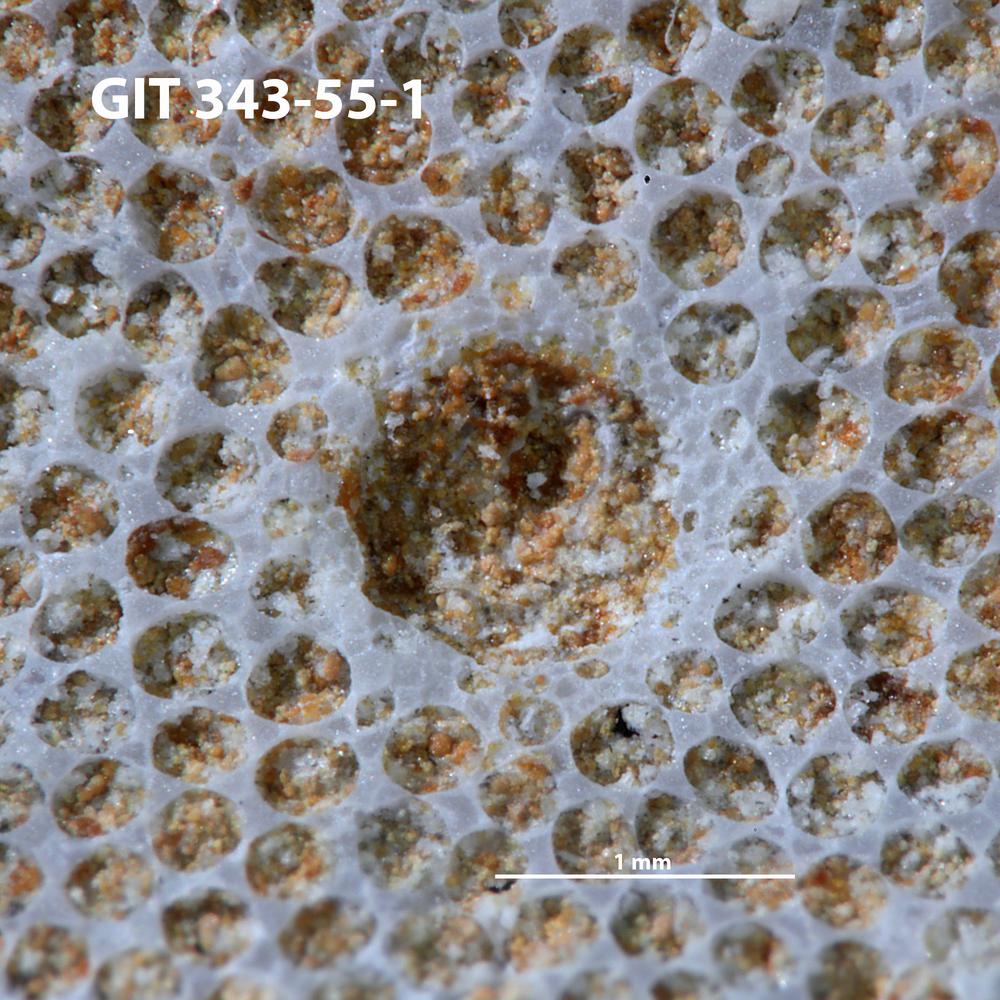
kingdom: Animalia
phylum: Annelida
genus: Anoigmaichnus
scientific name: Anoigmaichnus
